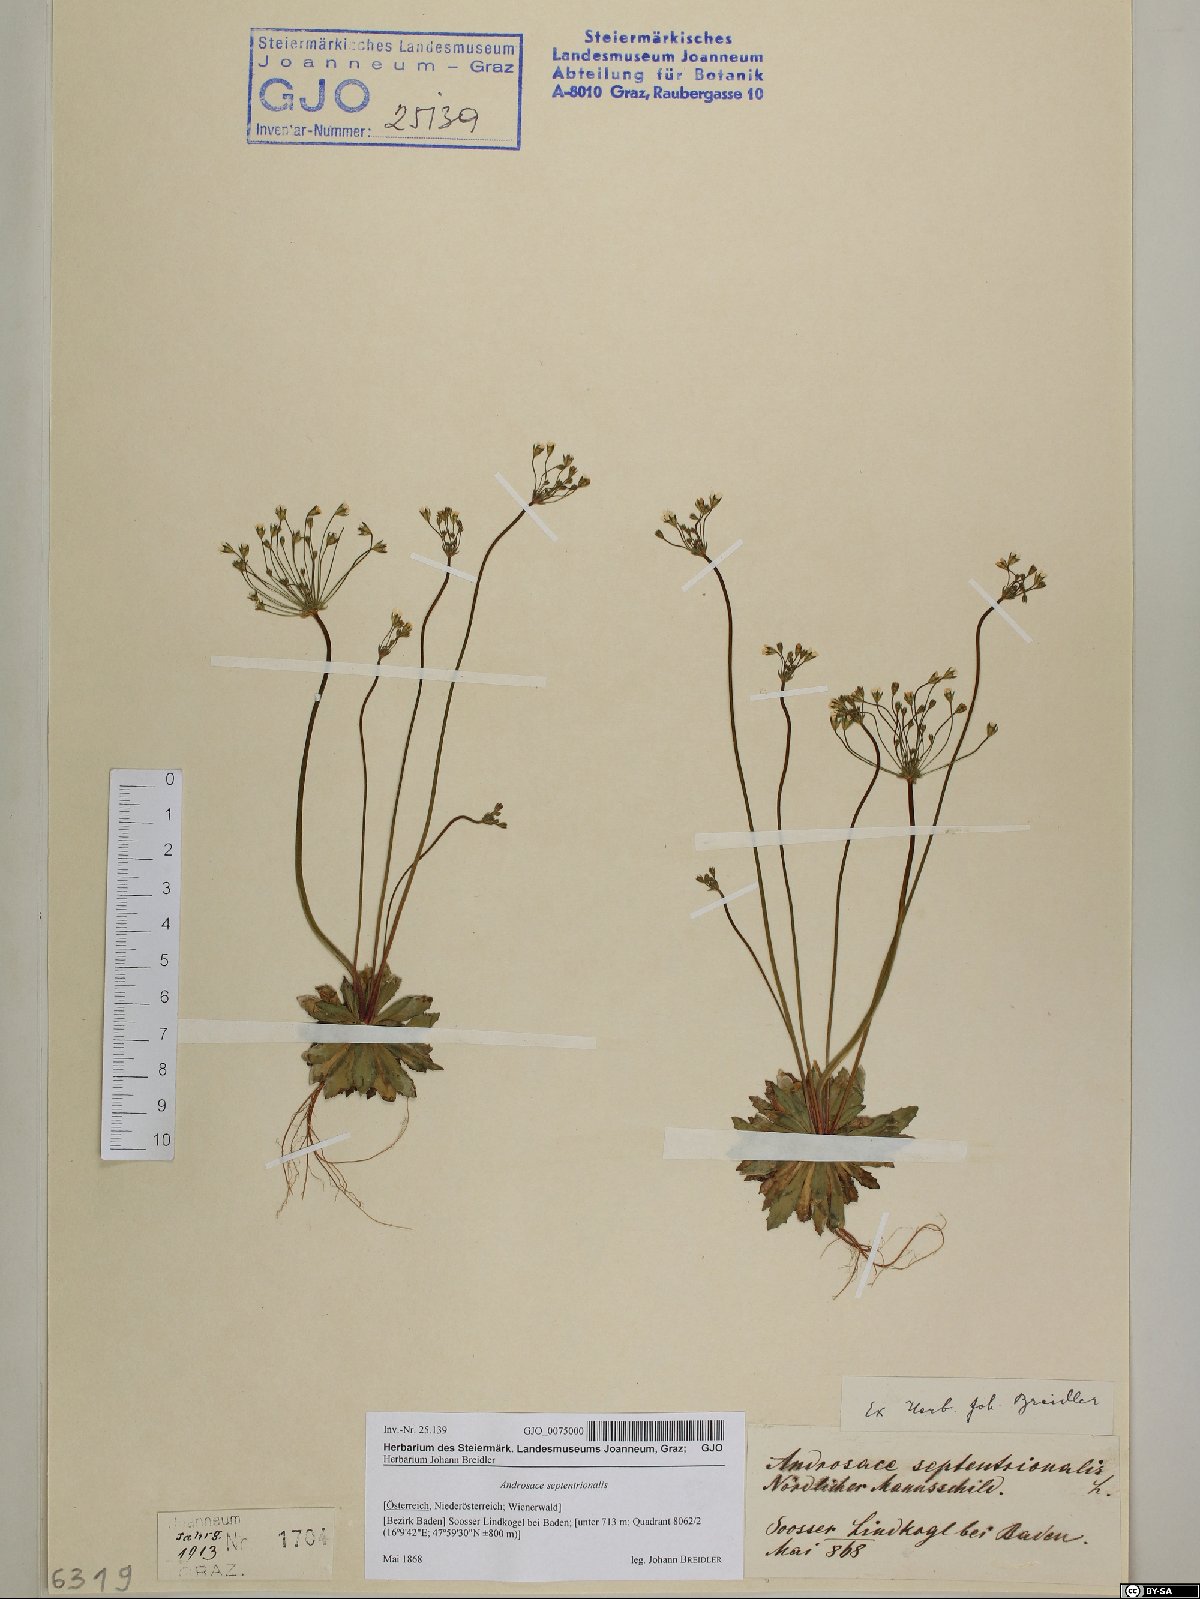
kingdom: Plantae
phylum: Tracheophyta
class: Magnoliopsida
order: Ericales
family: Primulaceae
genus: Androsace
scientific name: Androsace septentrionalis
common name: Hairy northern fairy-candelabra
